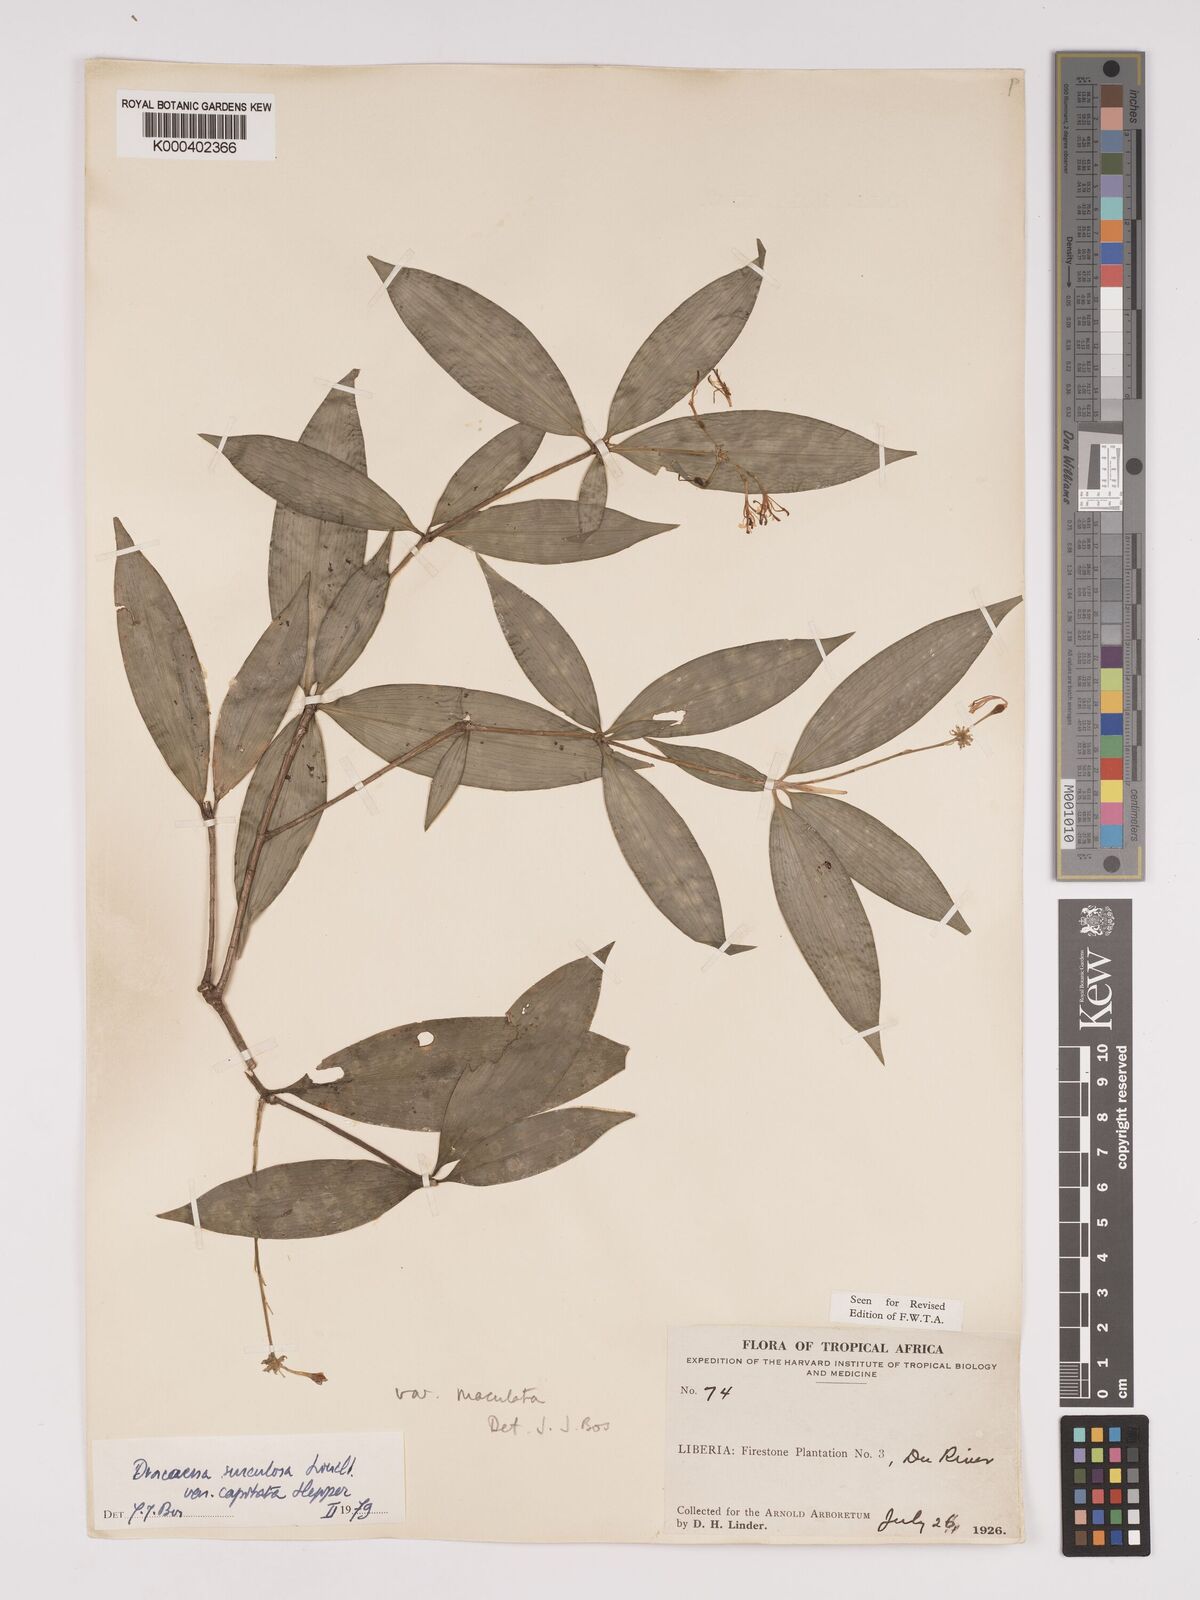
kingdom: Plantae
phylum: Tracheophyta
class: Liliopsida
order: Asparagales
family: Asparagaceae
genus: Dracaena
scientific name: Dracaena surculosa
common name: Spotted dracaena
